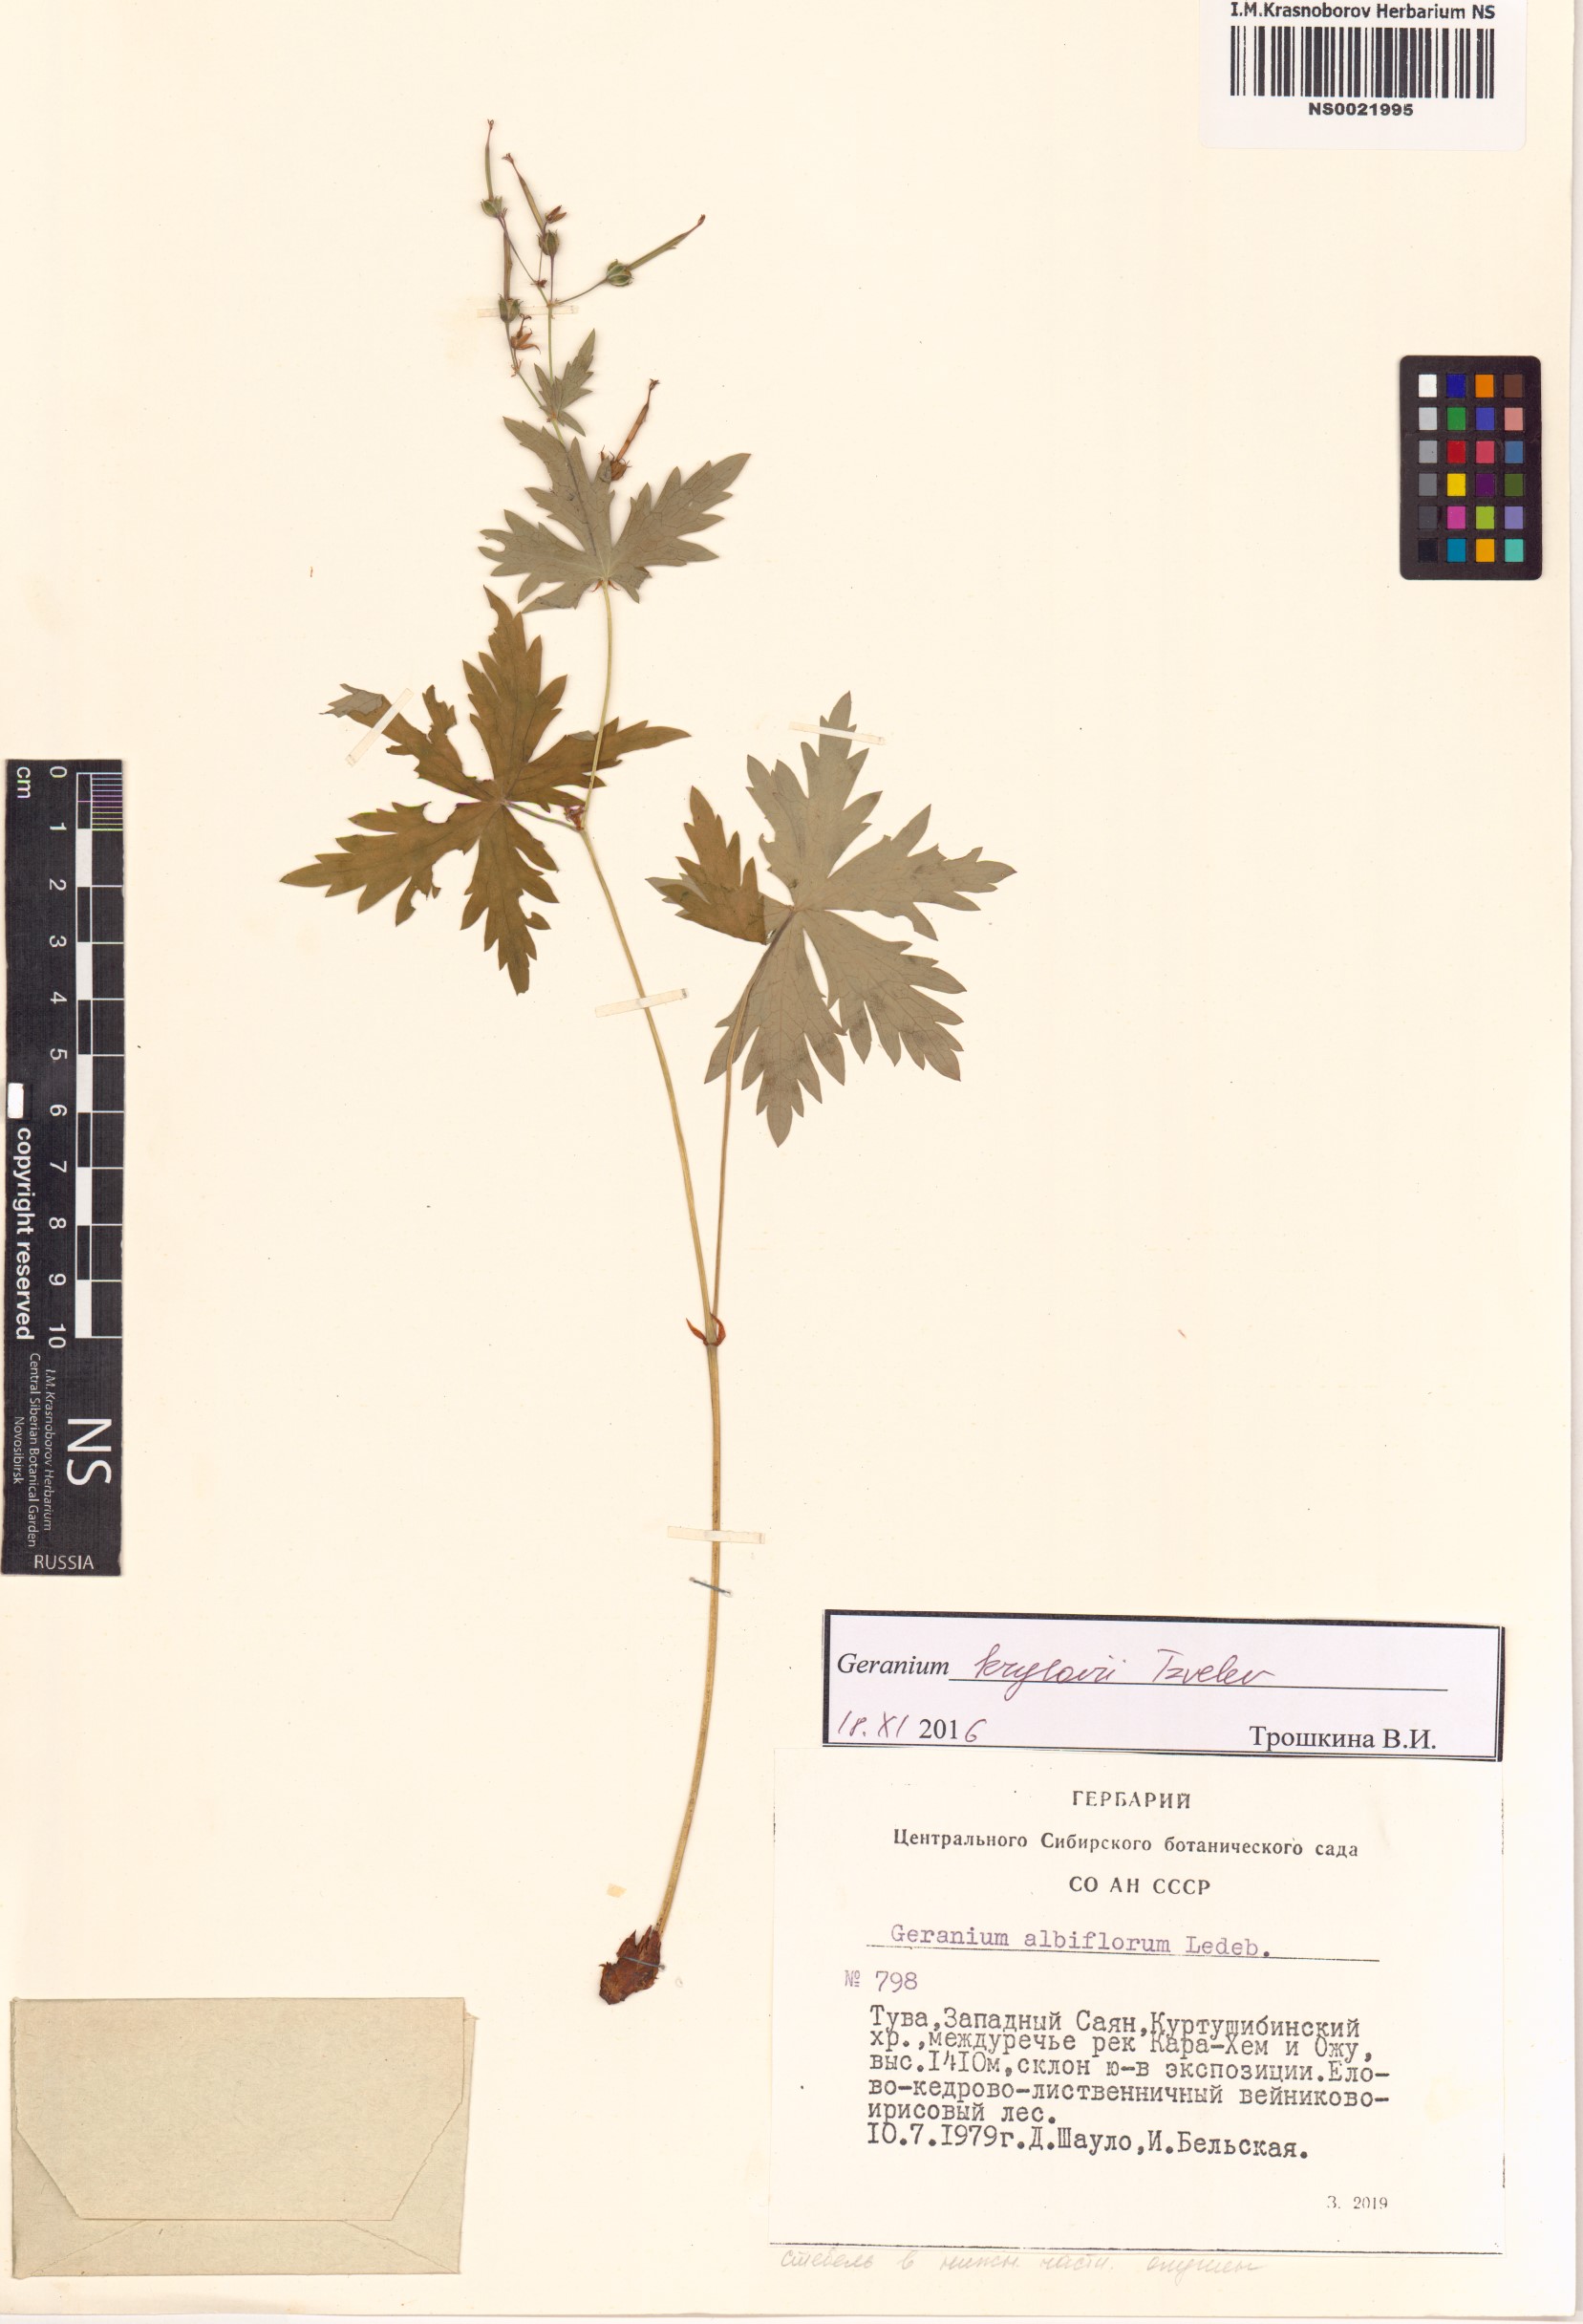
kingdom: Plantae
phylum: Tracheophyta
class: Magnoliopsida
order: Geraniales
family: Geraniaceae
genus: Geranium
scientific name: Geranium sylvaticum
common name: Wood crane's-bill
